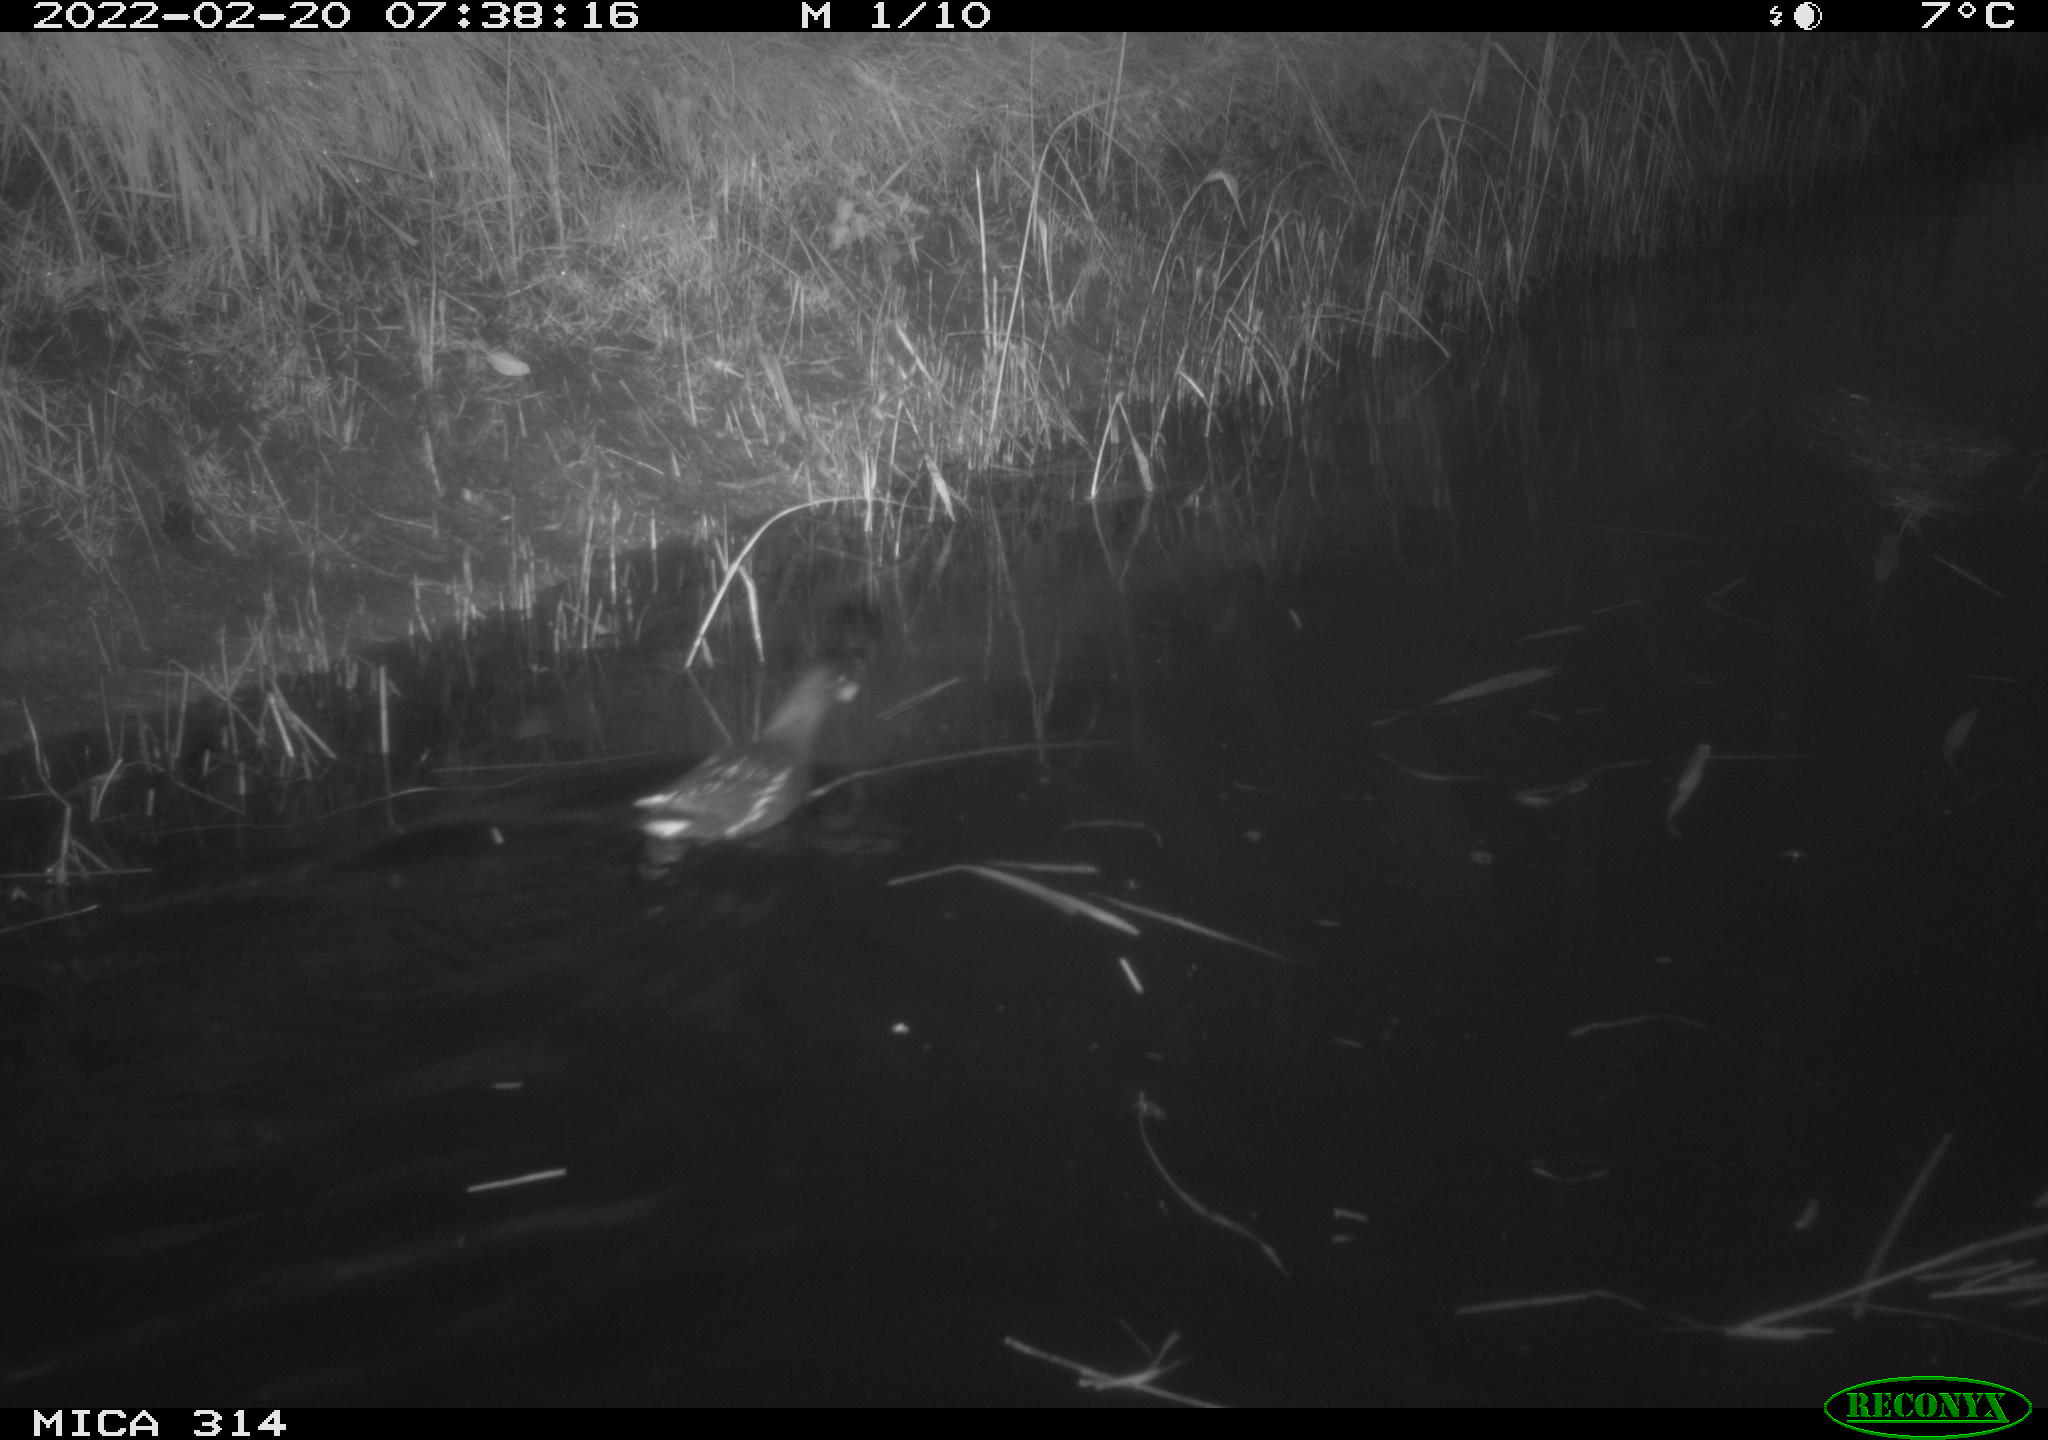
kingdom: Animalia
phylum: Chordata
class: Aves
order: Gruiformes
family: Rallidae
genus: Gallinula
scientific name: Gallinula chloropus
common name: Common moorhen
